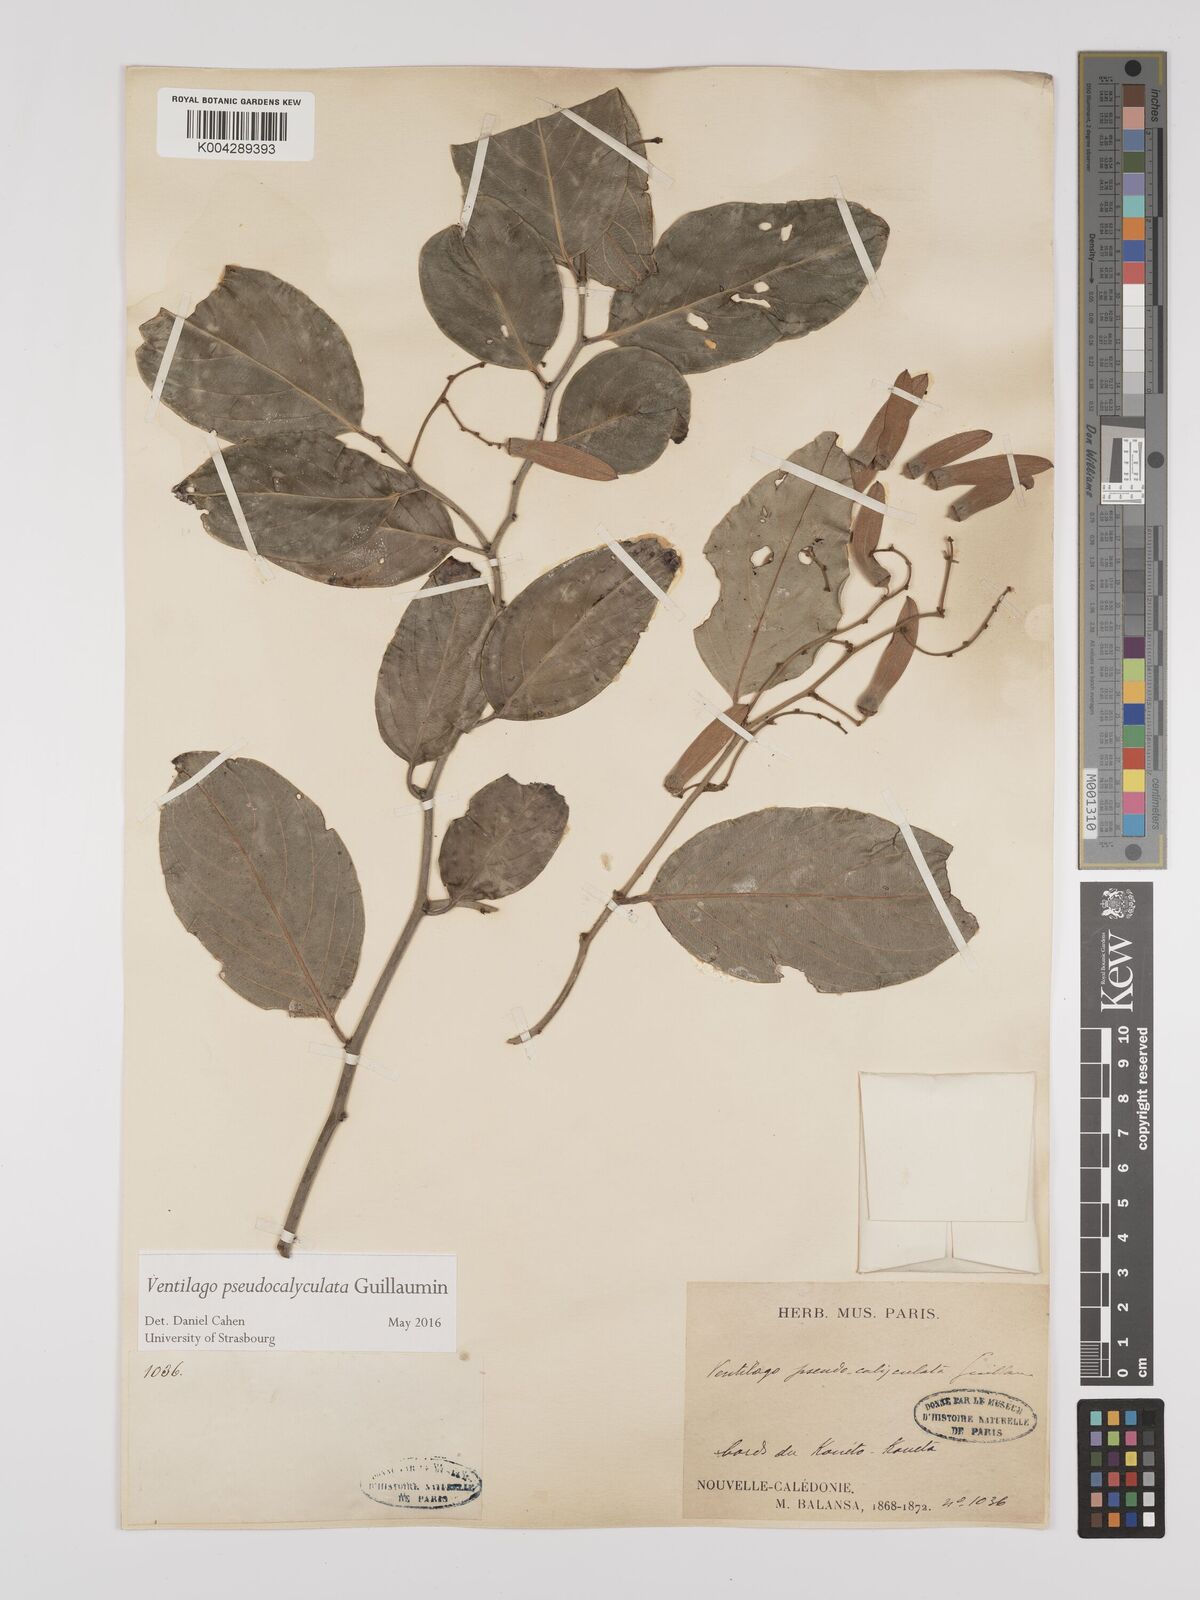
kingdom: Plantae
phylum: Tracheophyta
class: Magnoliopsida
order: Rosales
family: Rhamnaceae
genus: Ventilago
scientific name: Ventilago
